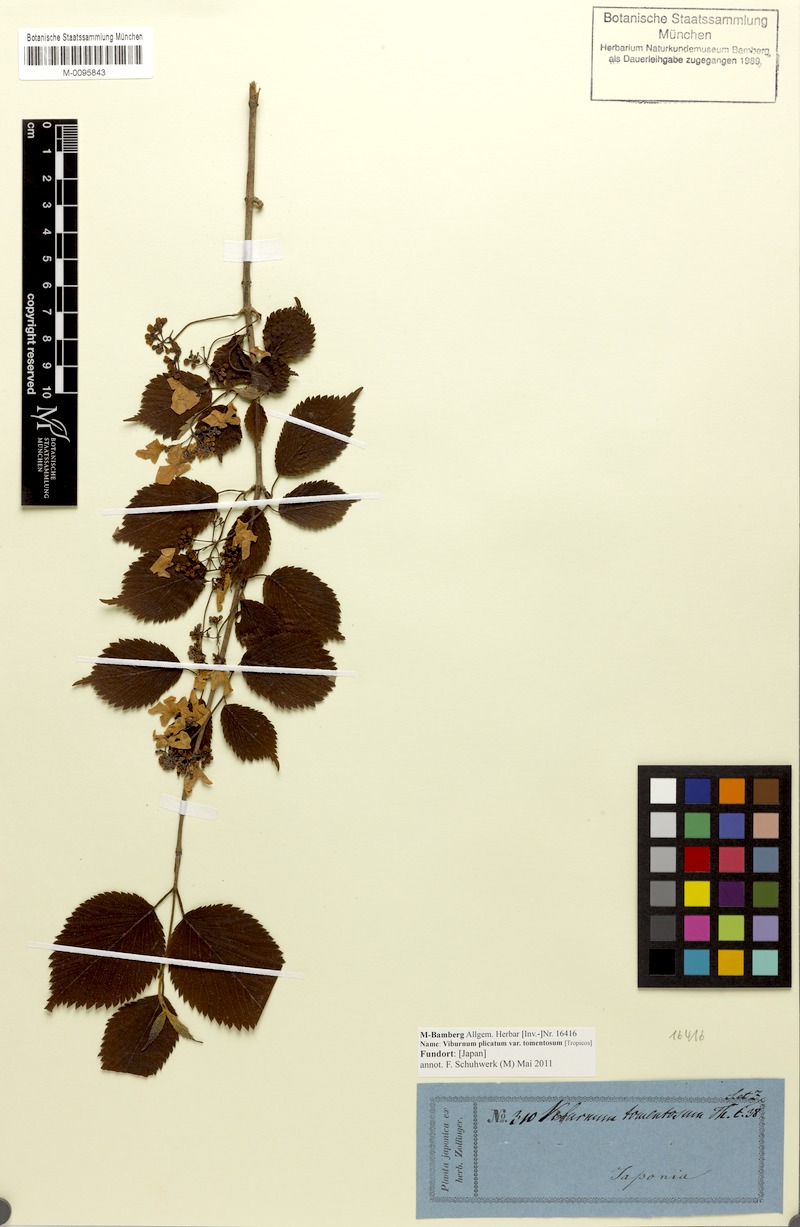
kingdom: Plantae
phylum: Tracheophyta
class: Magnoliopsida
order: Dipsacales
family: Viburnaceae
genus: Viburnum
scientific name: Viburnum plicatum
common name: Japanese snowball
